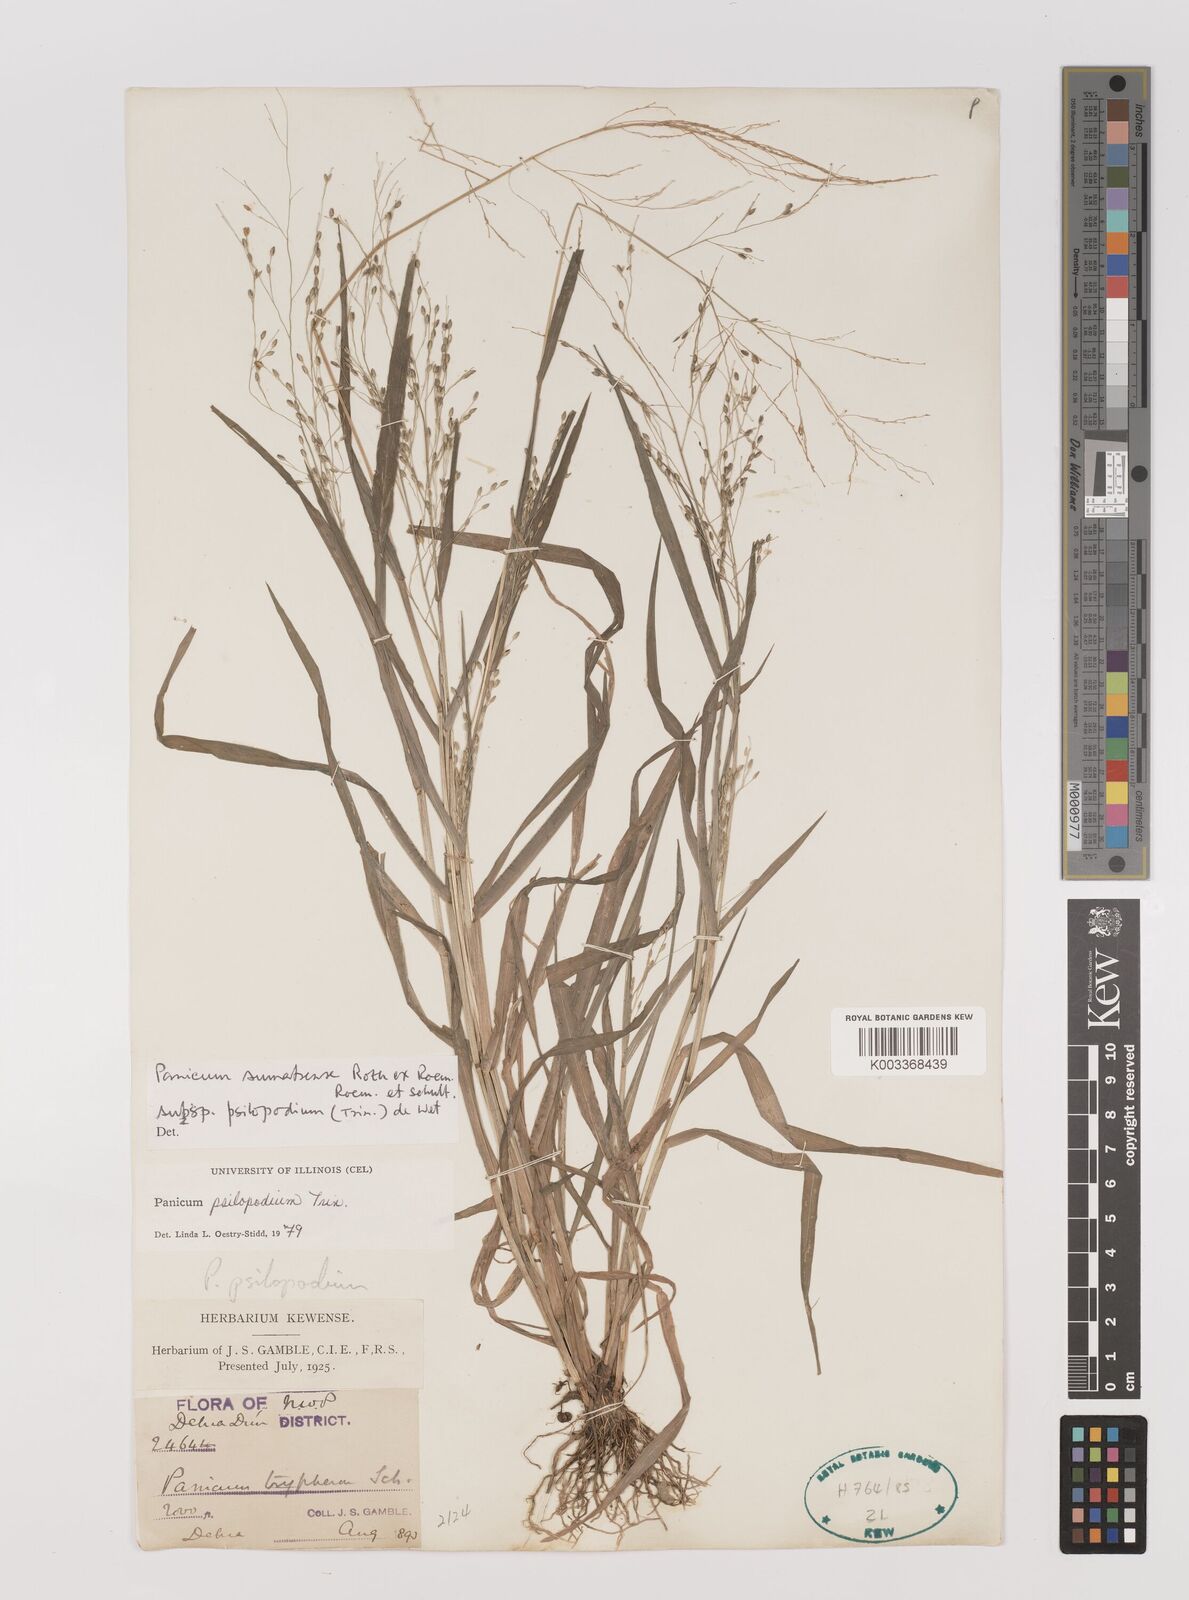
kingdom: Plantae
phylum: Tracheophyta
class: Liliopsida
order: Poales
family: Poaceae
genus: Panicum
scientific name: Panicum sumatrense
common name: Little millet
